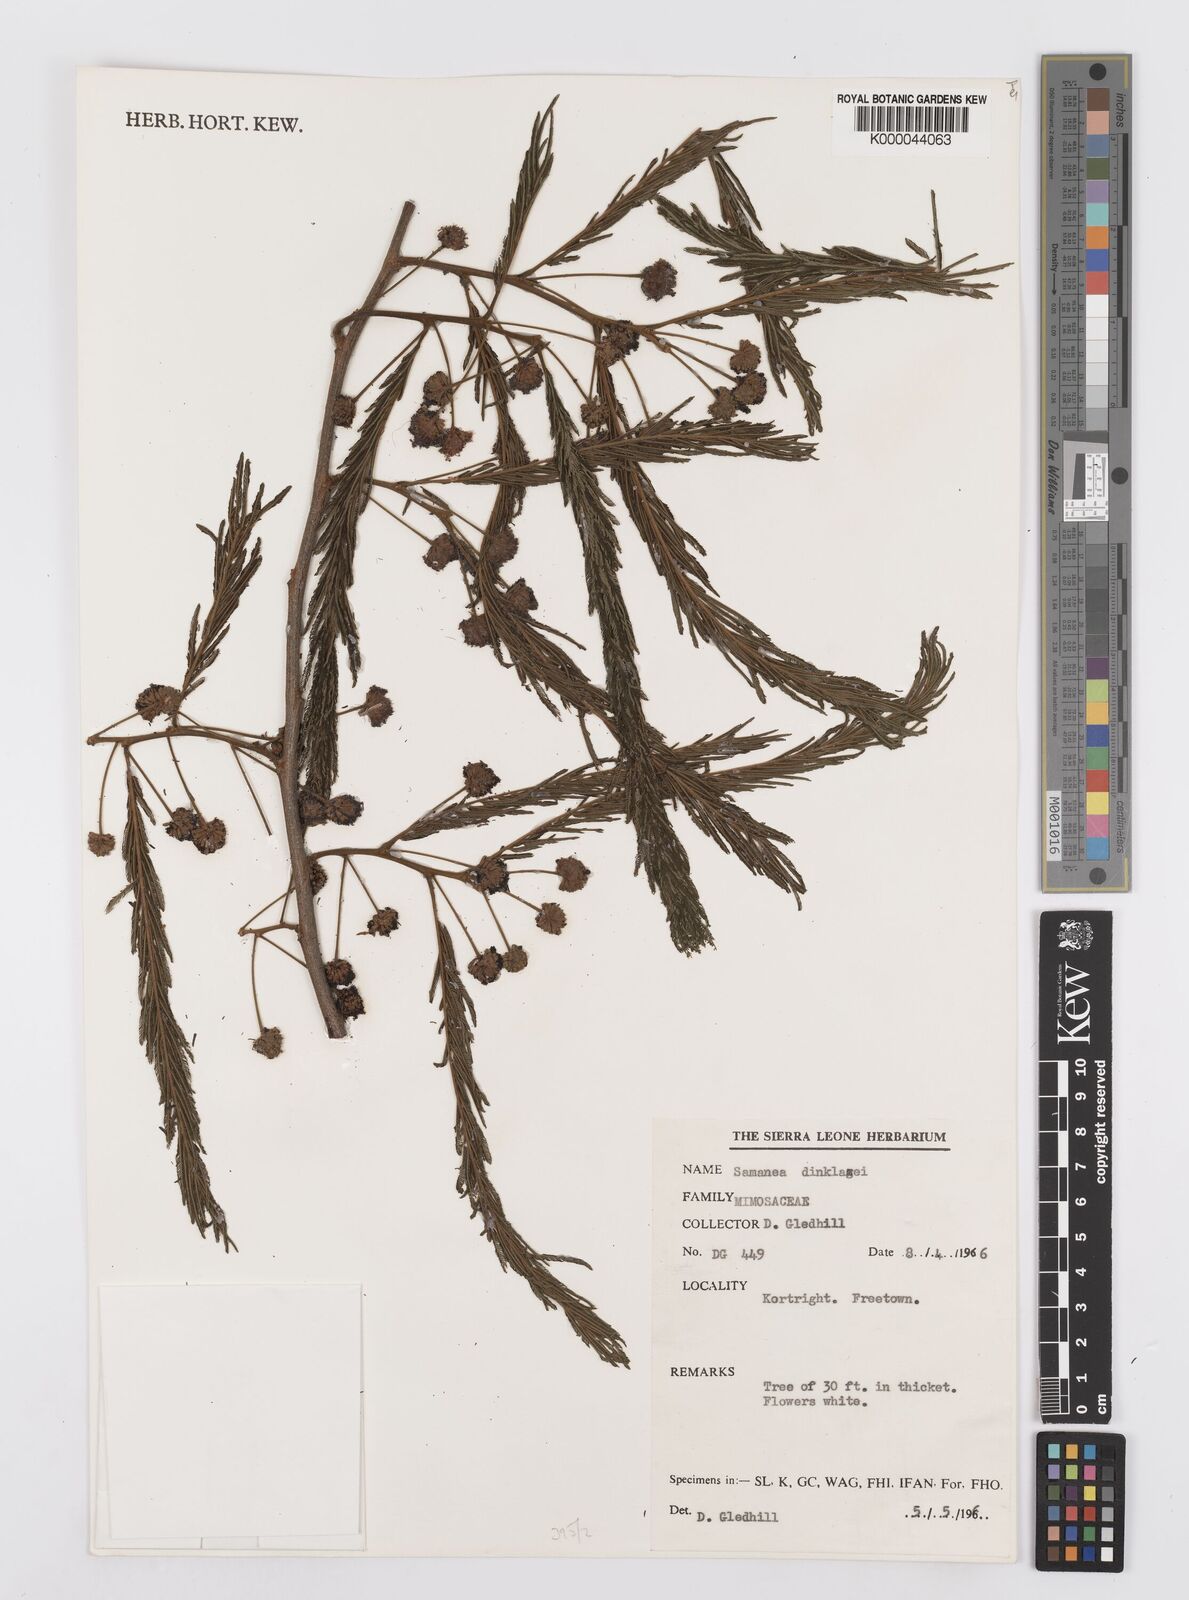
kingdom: Plantae
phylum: Tracheophyta
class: Magnoliopsida
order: Fabales
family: Fabaceae
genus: Albizia
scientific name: Albizia dinklagei
